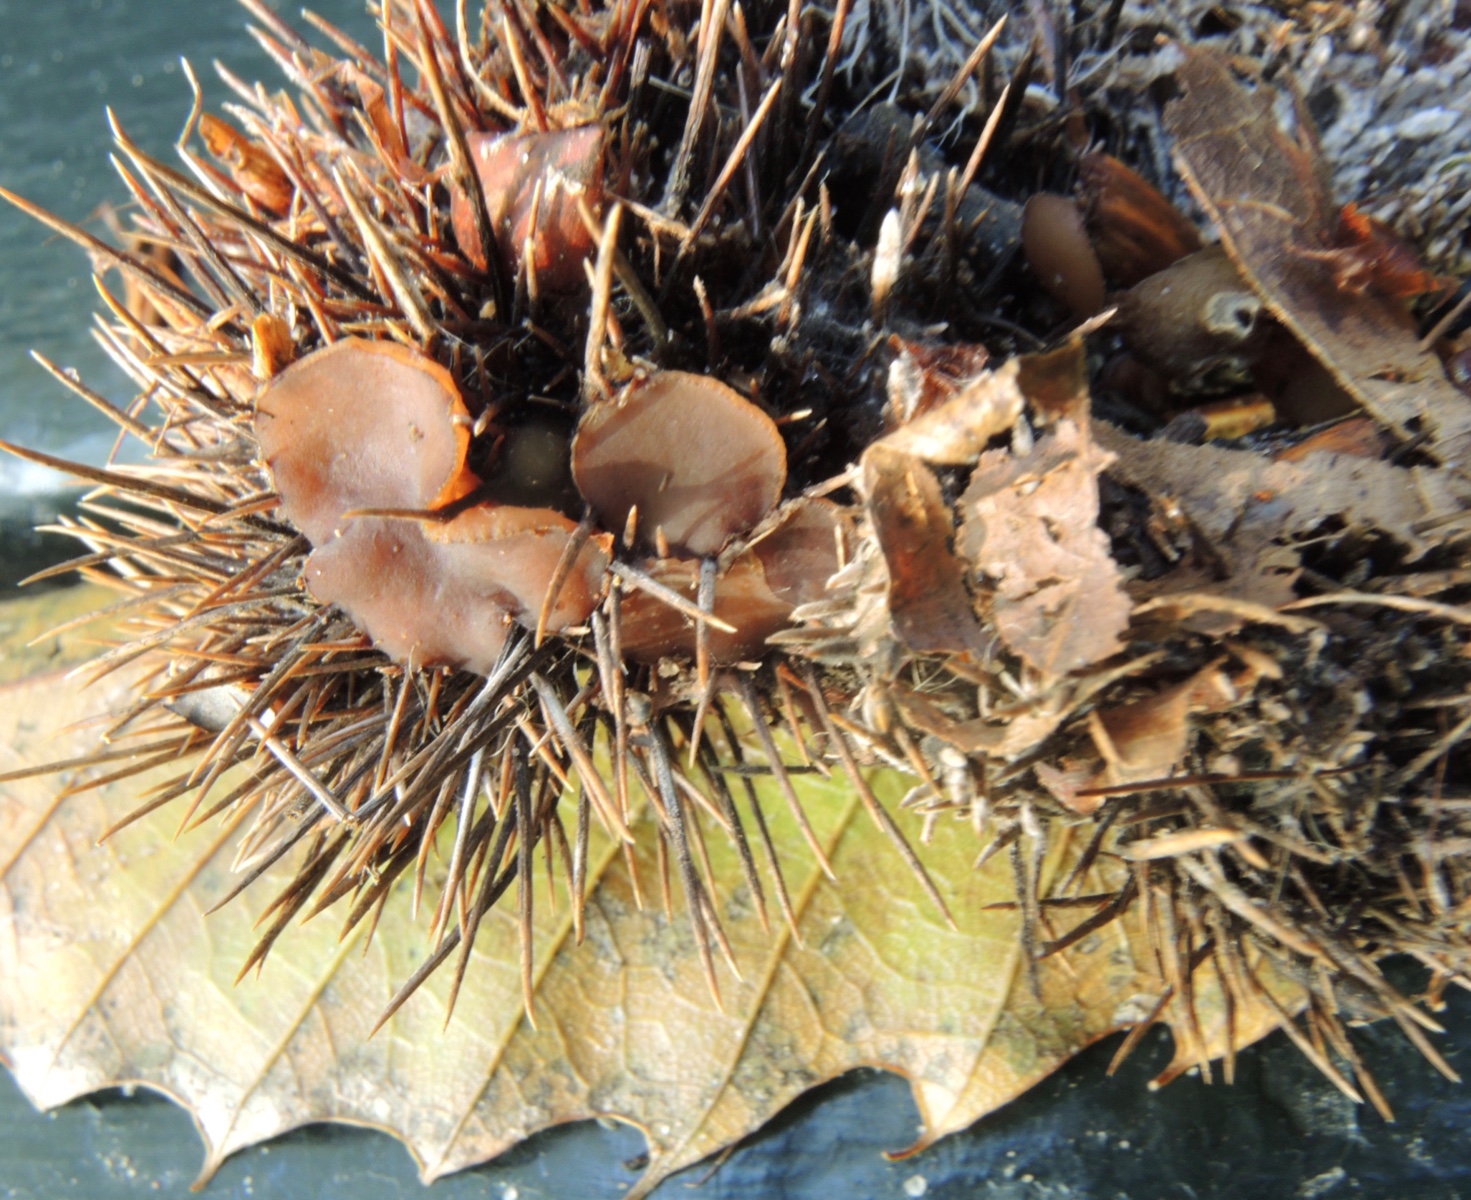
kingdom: Fungi
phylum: Ascomycota
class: Leotiomycetes
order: Helotiales
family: Rutstroemiaceae
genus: Lanzia
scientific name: Lanzia echinophila
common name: kastanie-brunskive
